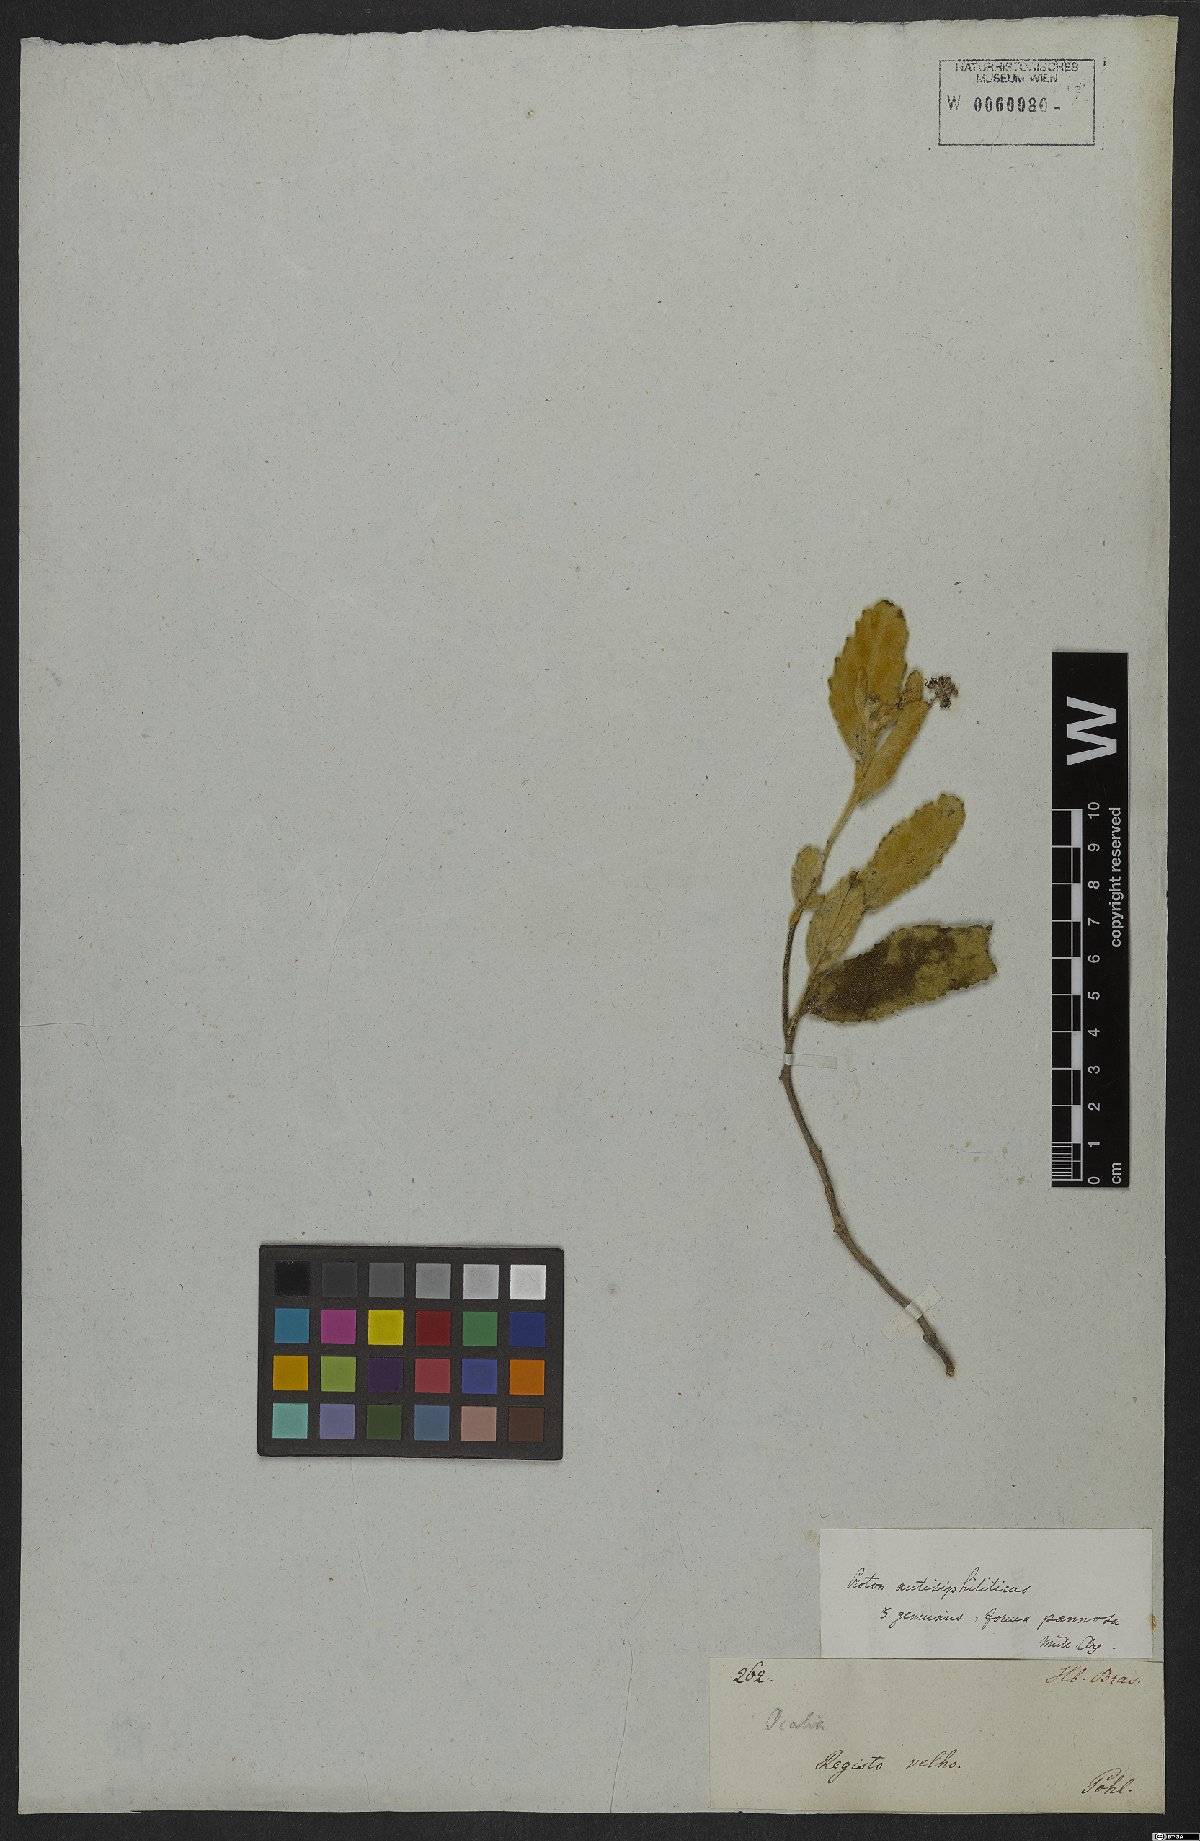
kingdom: Plantae
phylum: Tracheophyta
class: Magnoliopsida
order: Malpighiales
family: Euphorbiaceae
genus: Croton
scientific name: Croton antisyphiliticus
